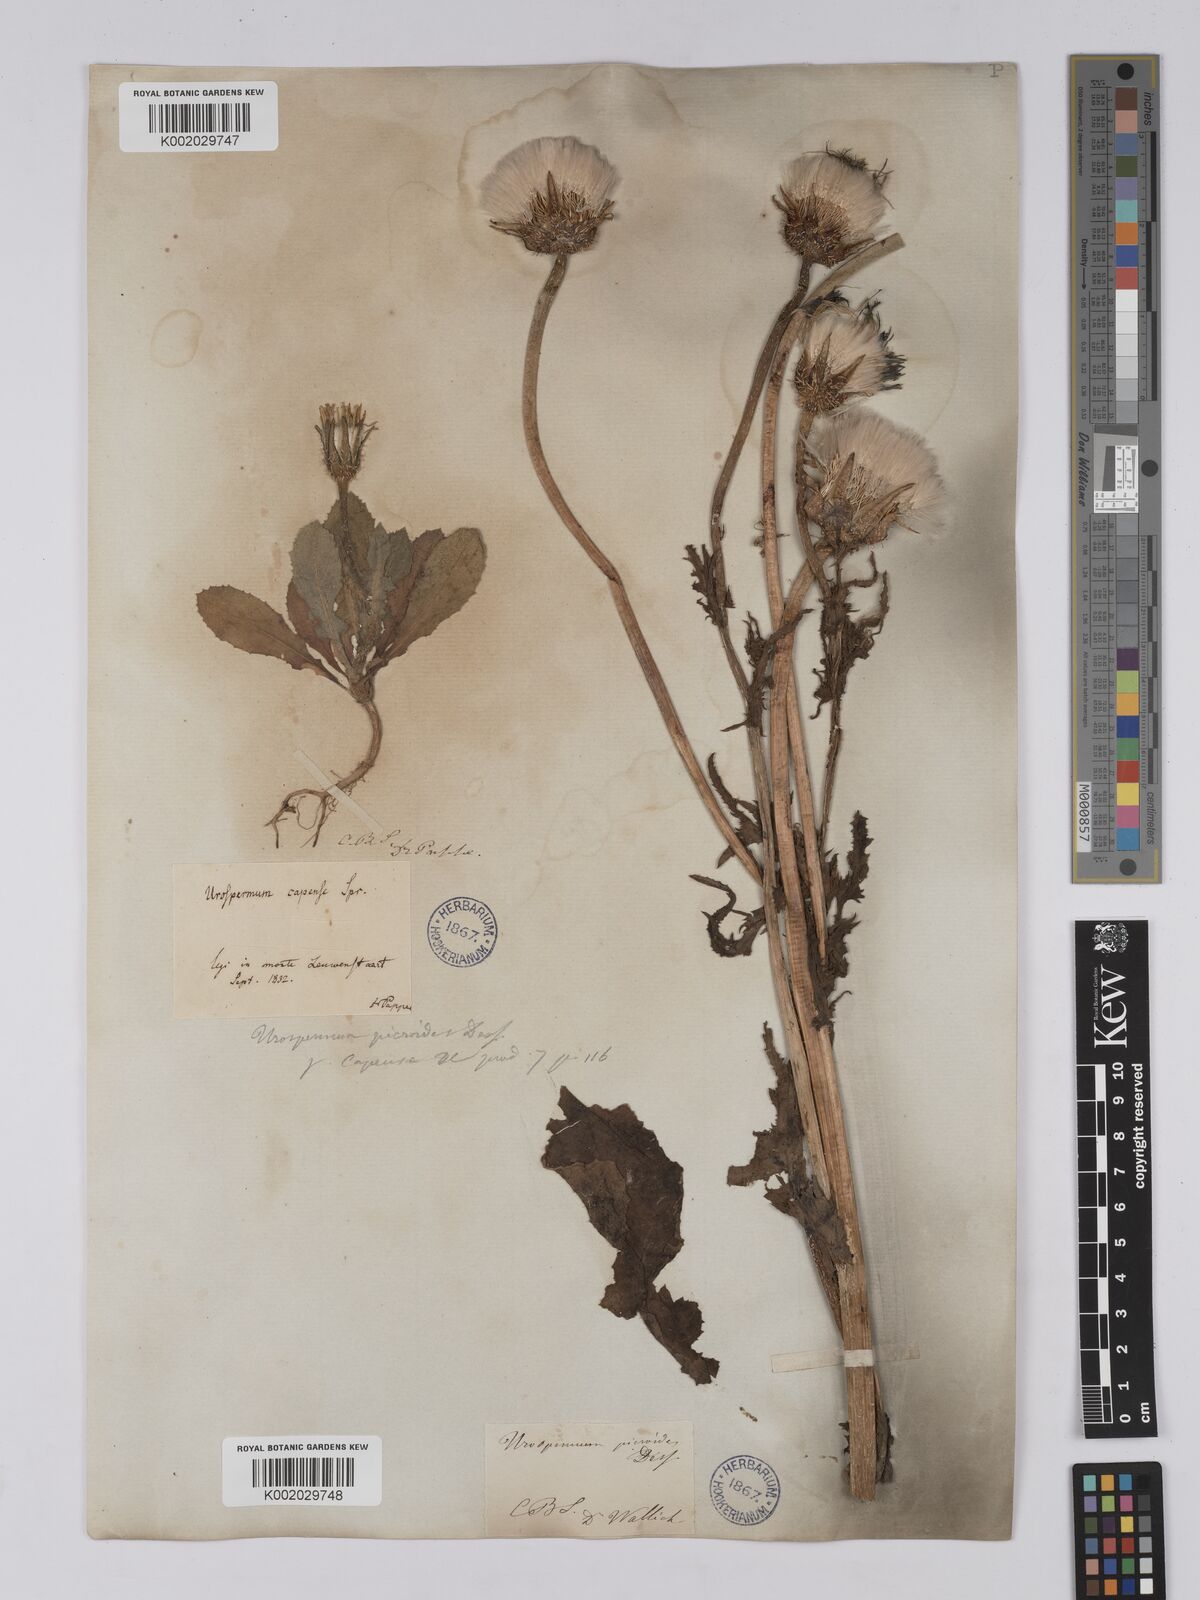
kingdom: Plantae
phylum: Tracheophyta
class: Magnoliopsida
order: Asterales
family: Asteraceae
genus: Urospermum
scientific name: Urospermum picroides
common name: False hawkbit
